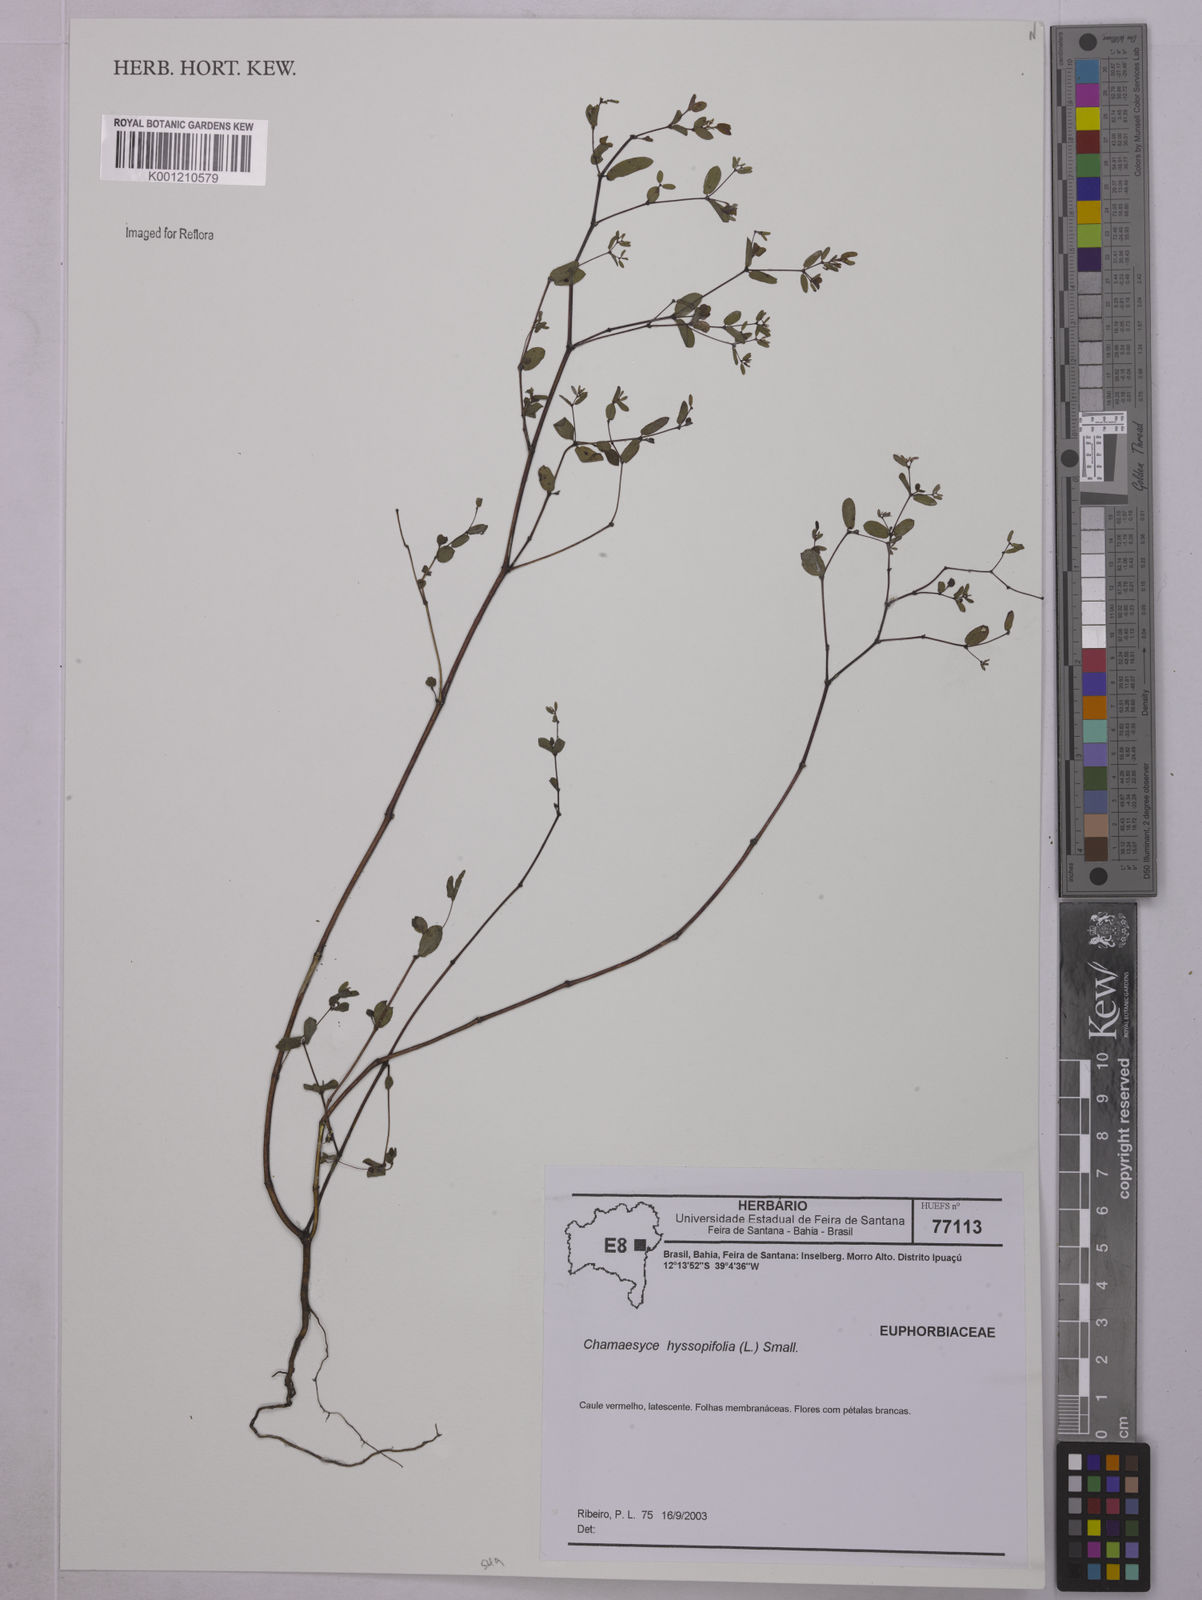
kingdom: Plantae
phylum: Tracheophyta
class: Magnoliopsida
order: Malpighiales
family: Euphorbiaceae
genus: Euphorbia
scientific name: Euphorbia hyssopifolia
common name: Hyssopleaf sandmat
